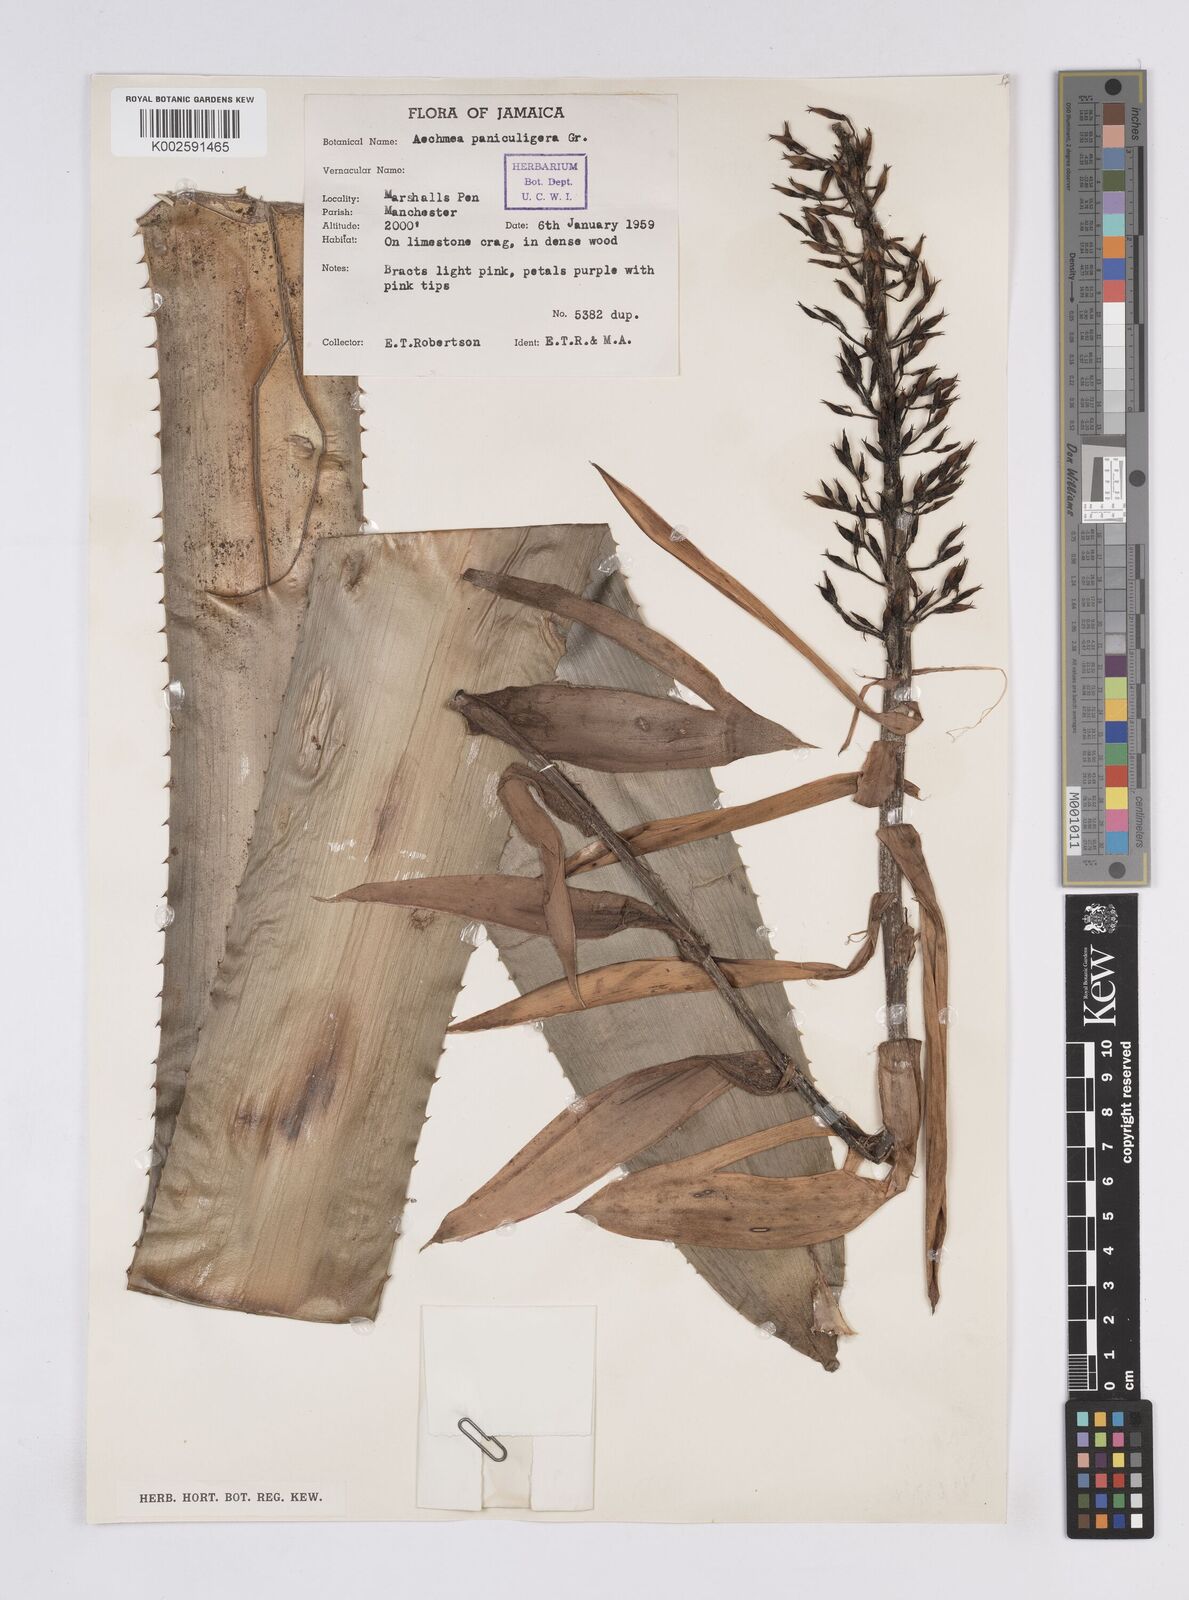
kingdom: Plantae
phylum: Tracheophyta
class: Liliopsida
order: Poales
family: Bromeliaceae
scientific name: Bromeliaceae
